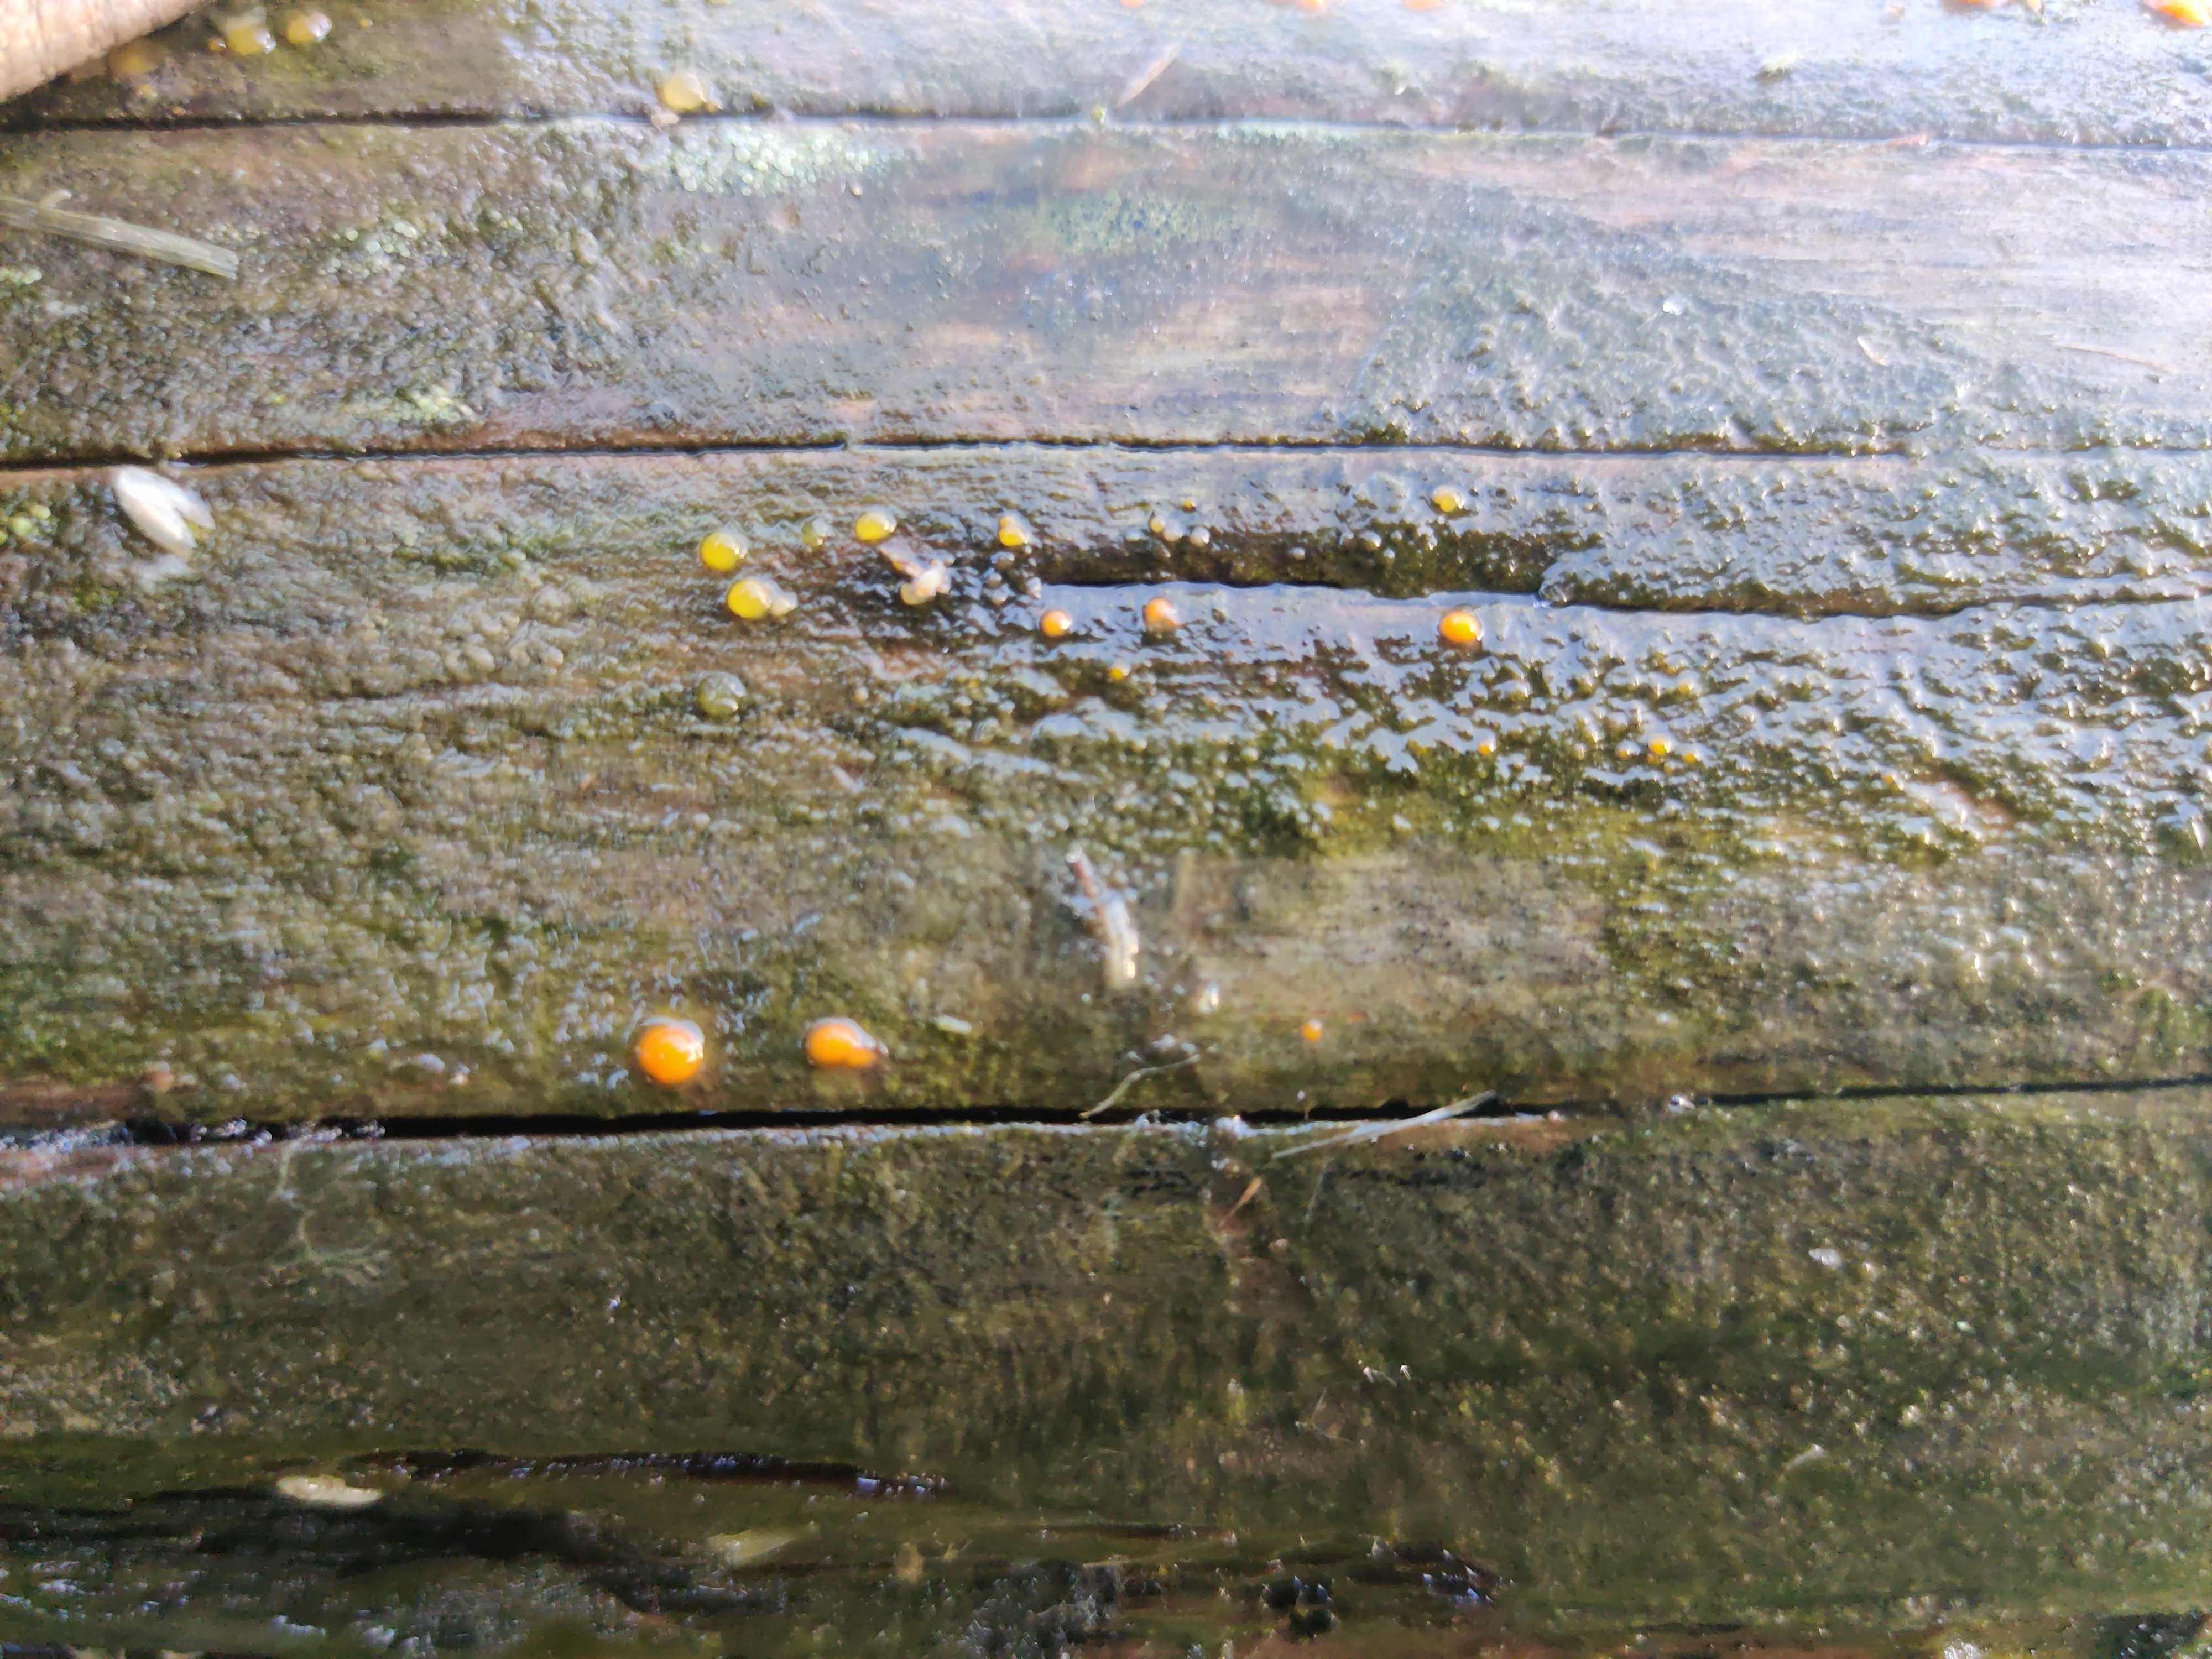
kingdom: Fungi
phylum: Basidiomycota
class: Dacrymycetes
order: Dacrymycetales
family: Dacrymycetaceae
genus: Dacrymyces
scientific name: Dacrymyces stillatus
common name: almindelig tåresvamp
